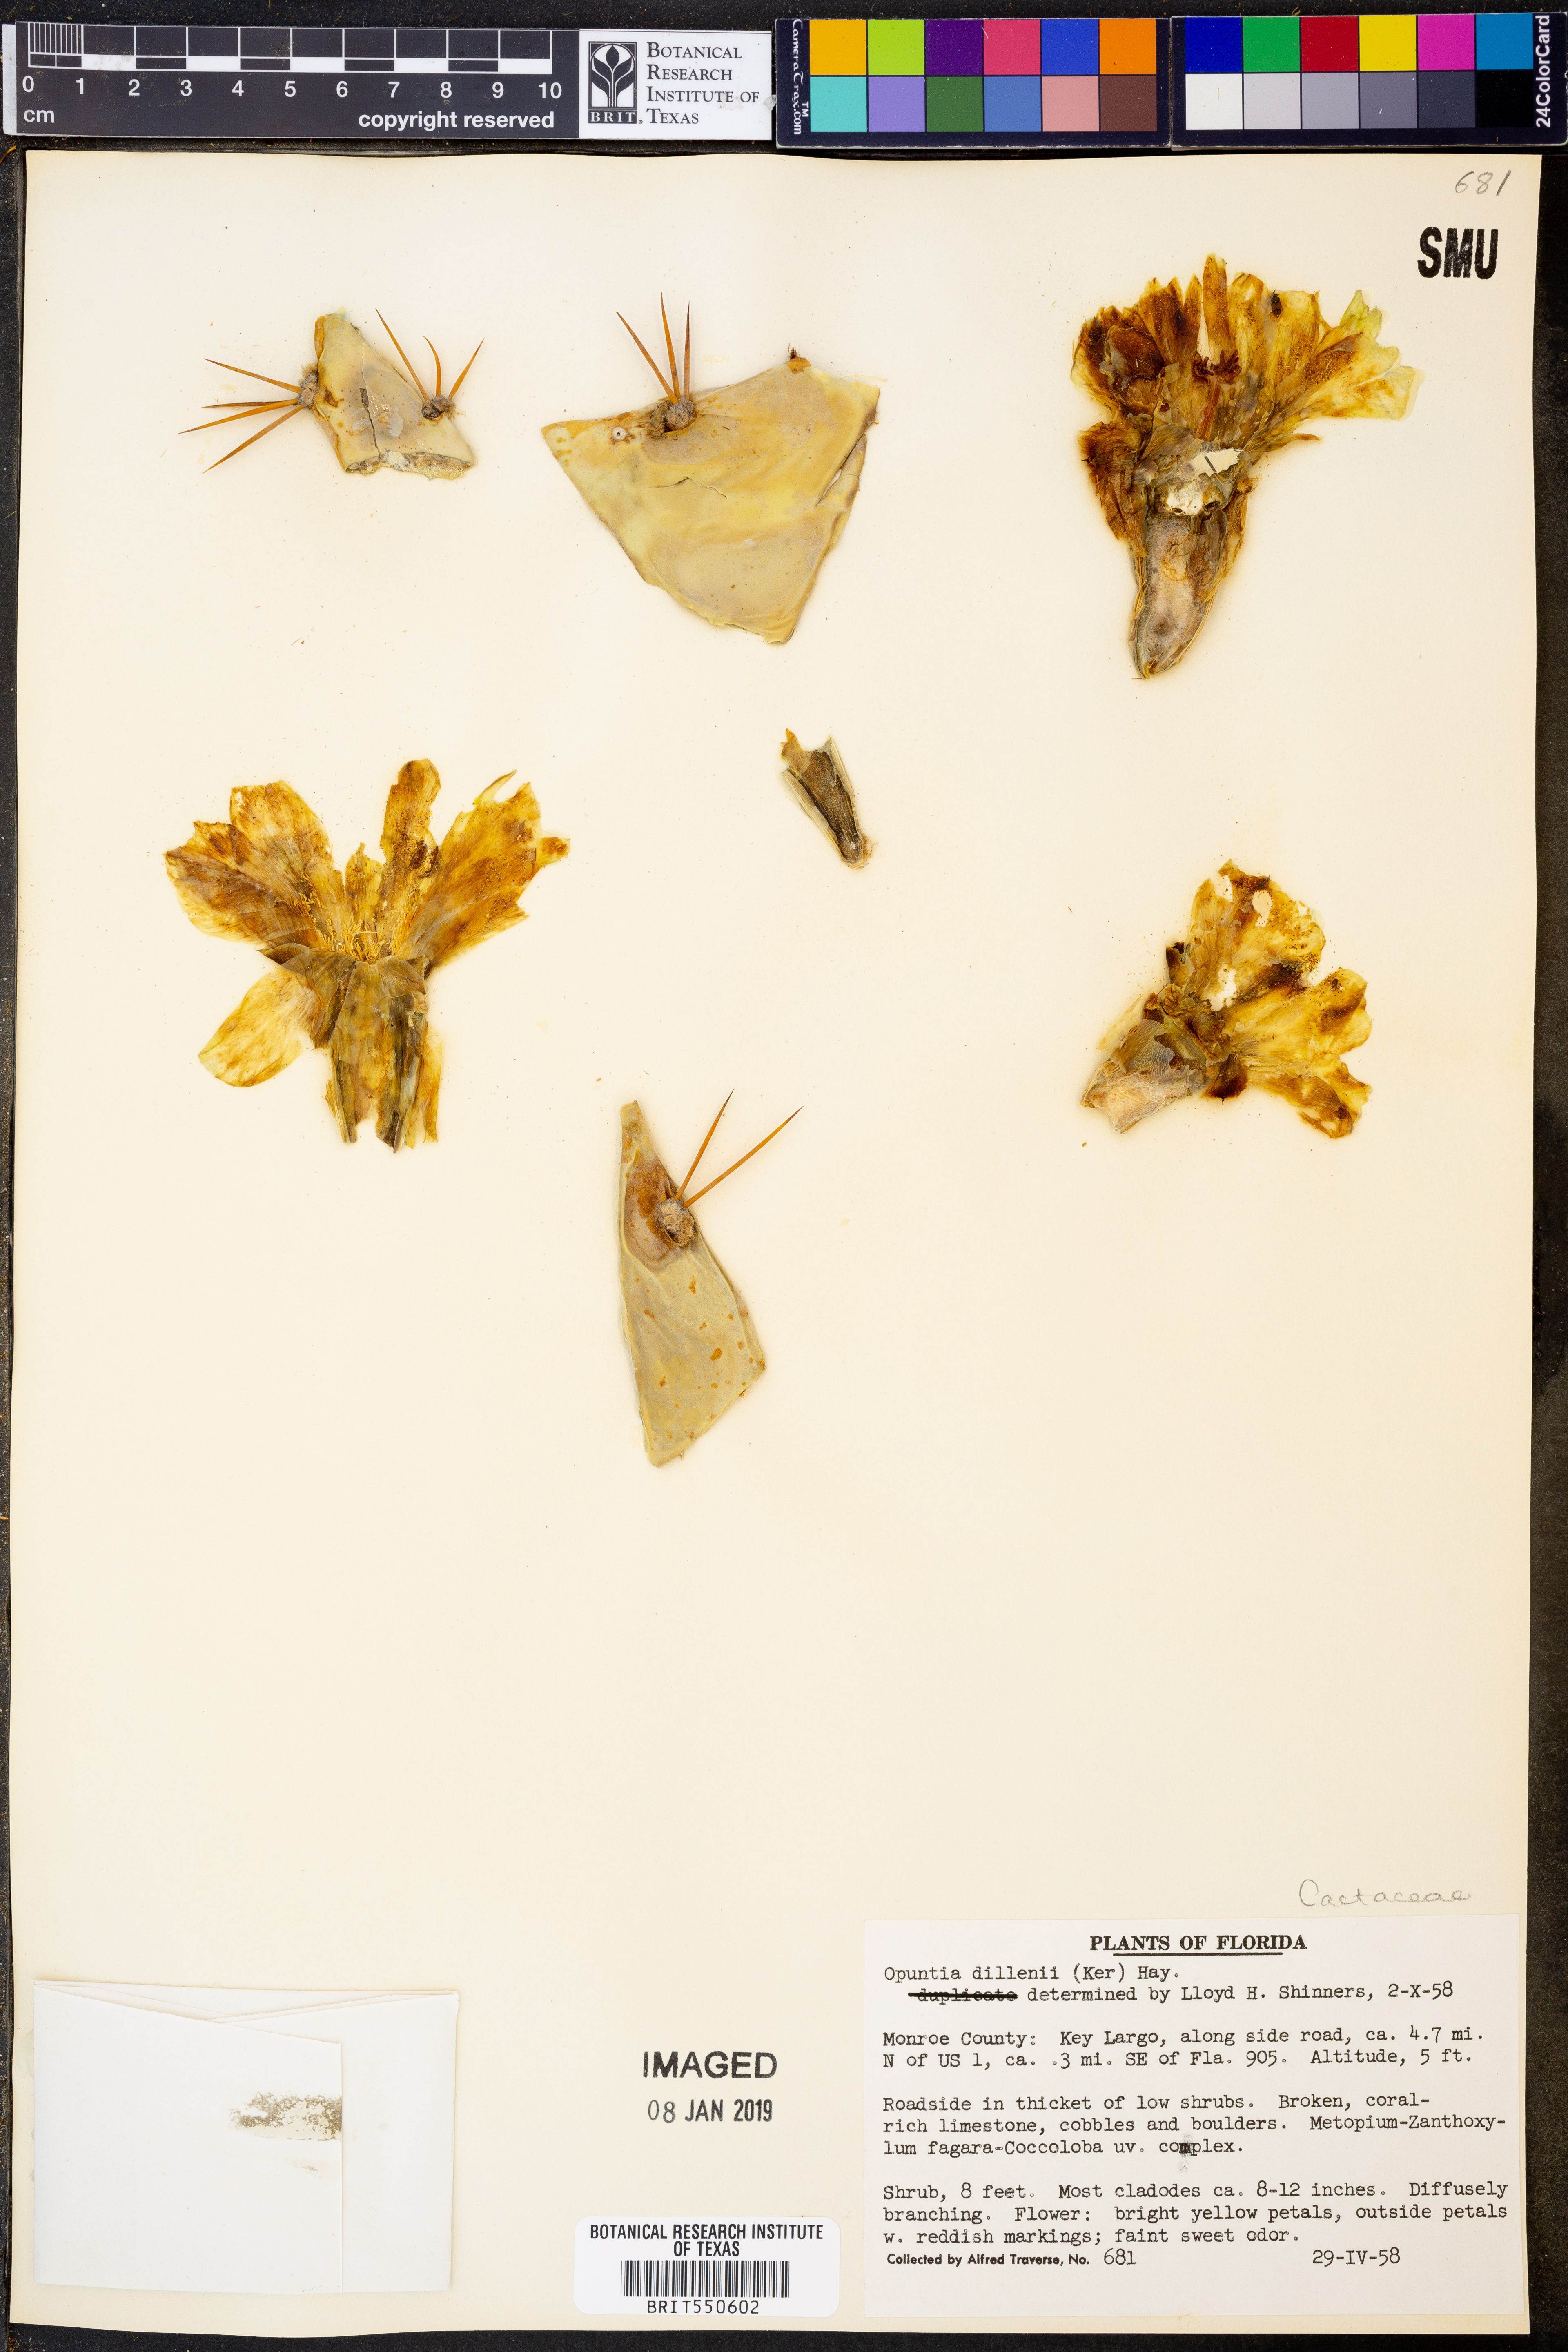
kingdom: Plantae
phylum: Tracheophyta
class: Magnoliopsida
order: Caryophyllales
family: Cactaceae
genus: Opuntia
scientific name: Opuntia dillenii
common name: Sour prickle
